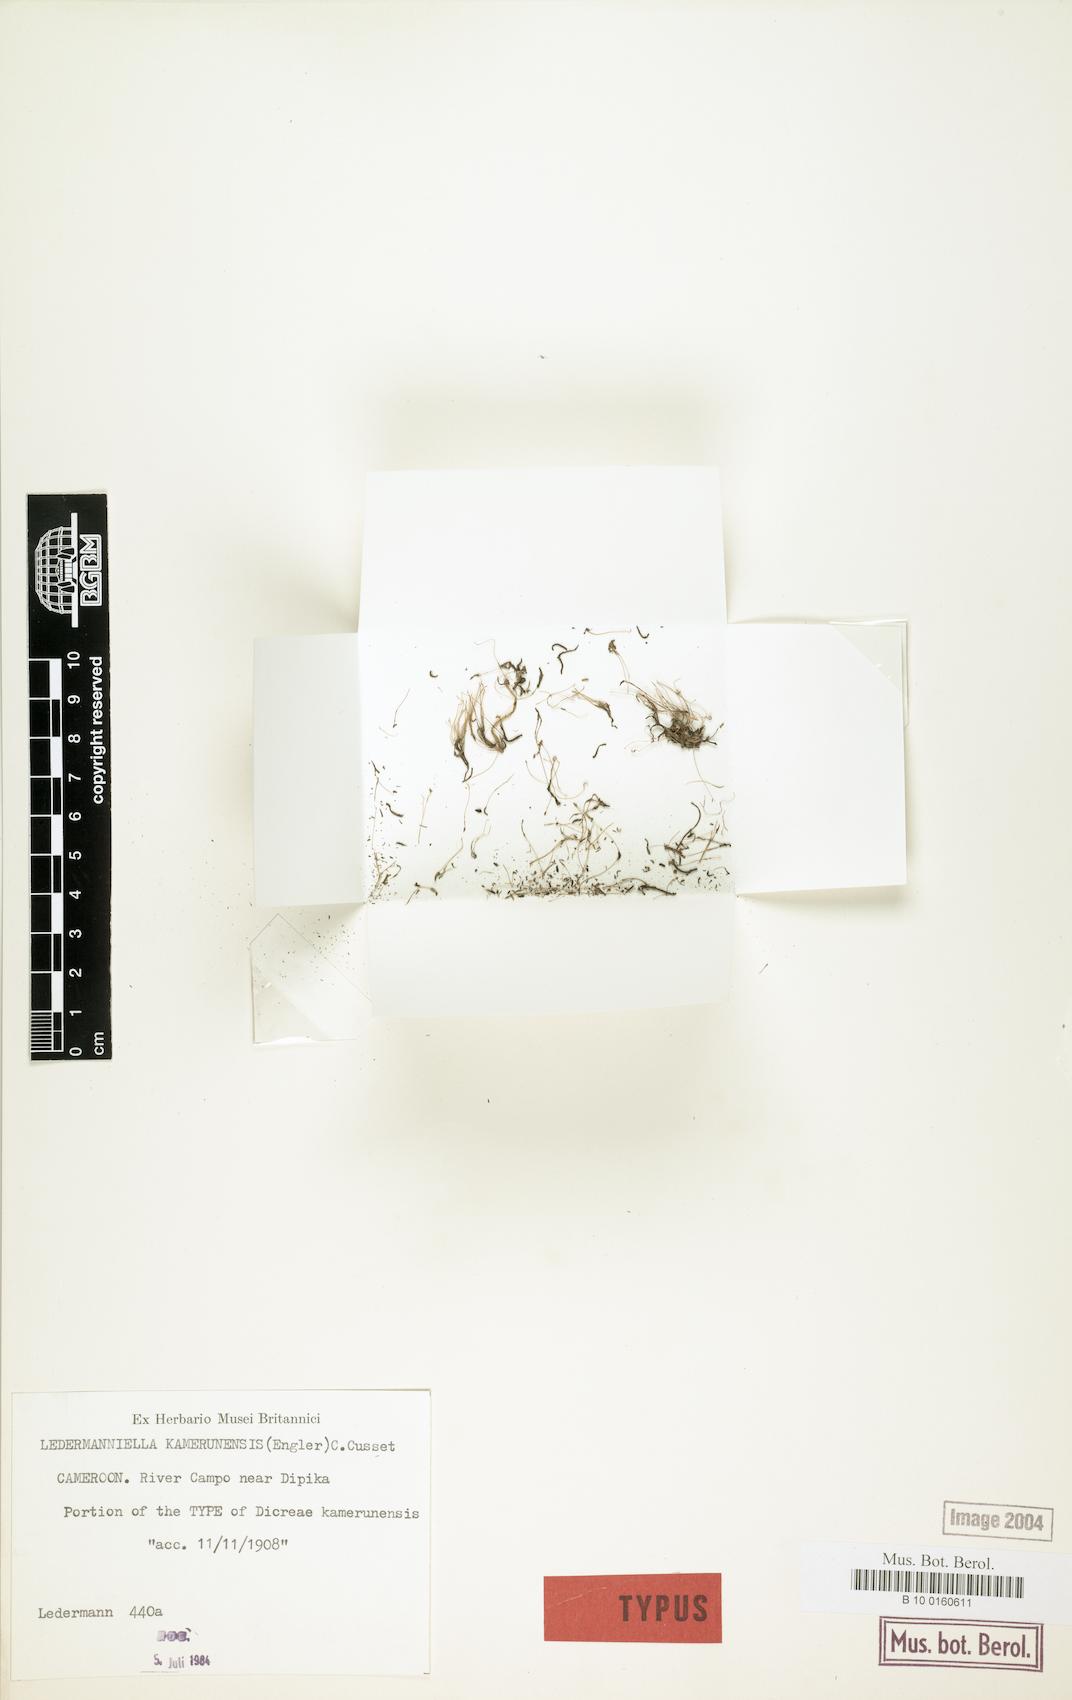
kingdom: Plantae
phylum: Tracheophyta
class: Magnoliopsida
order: Malpighiales
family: Podostemaceae
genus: Inversodicraea
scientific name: Inversodicraea kamerunensis
